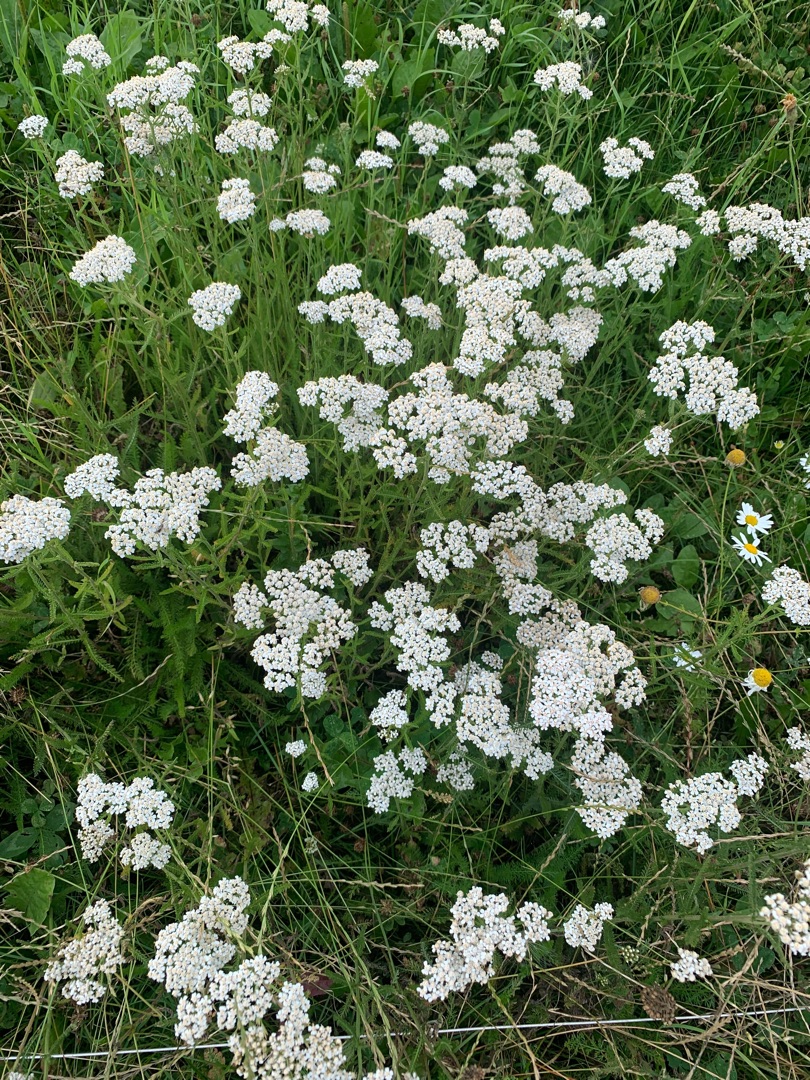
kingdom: Plantae
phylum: Tracheophyta
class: Magnoliopsida
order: Asterales
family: Asteraceae
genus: Achillea
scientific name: Achillea millefolium
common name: Almindelig røllike
